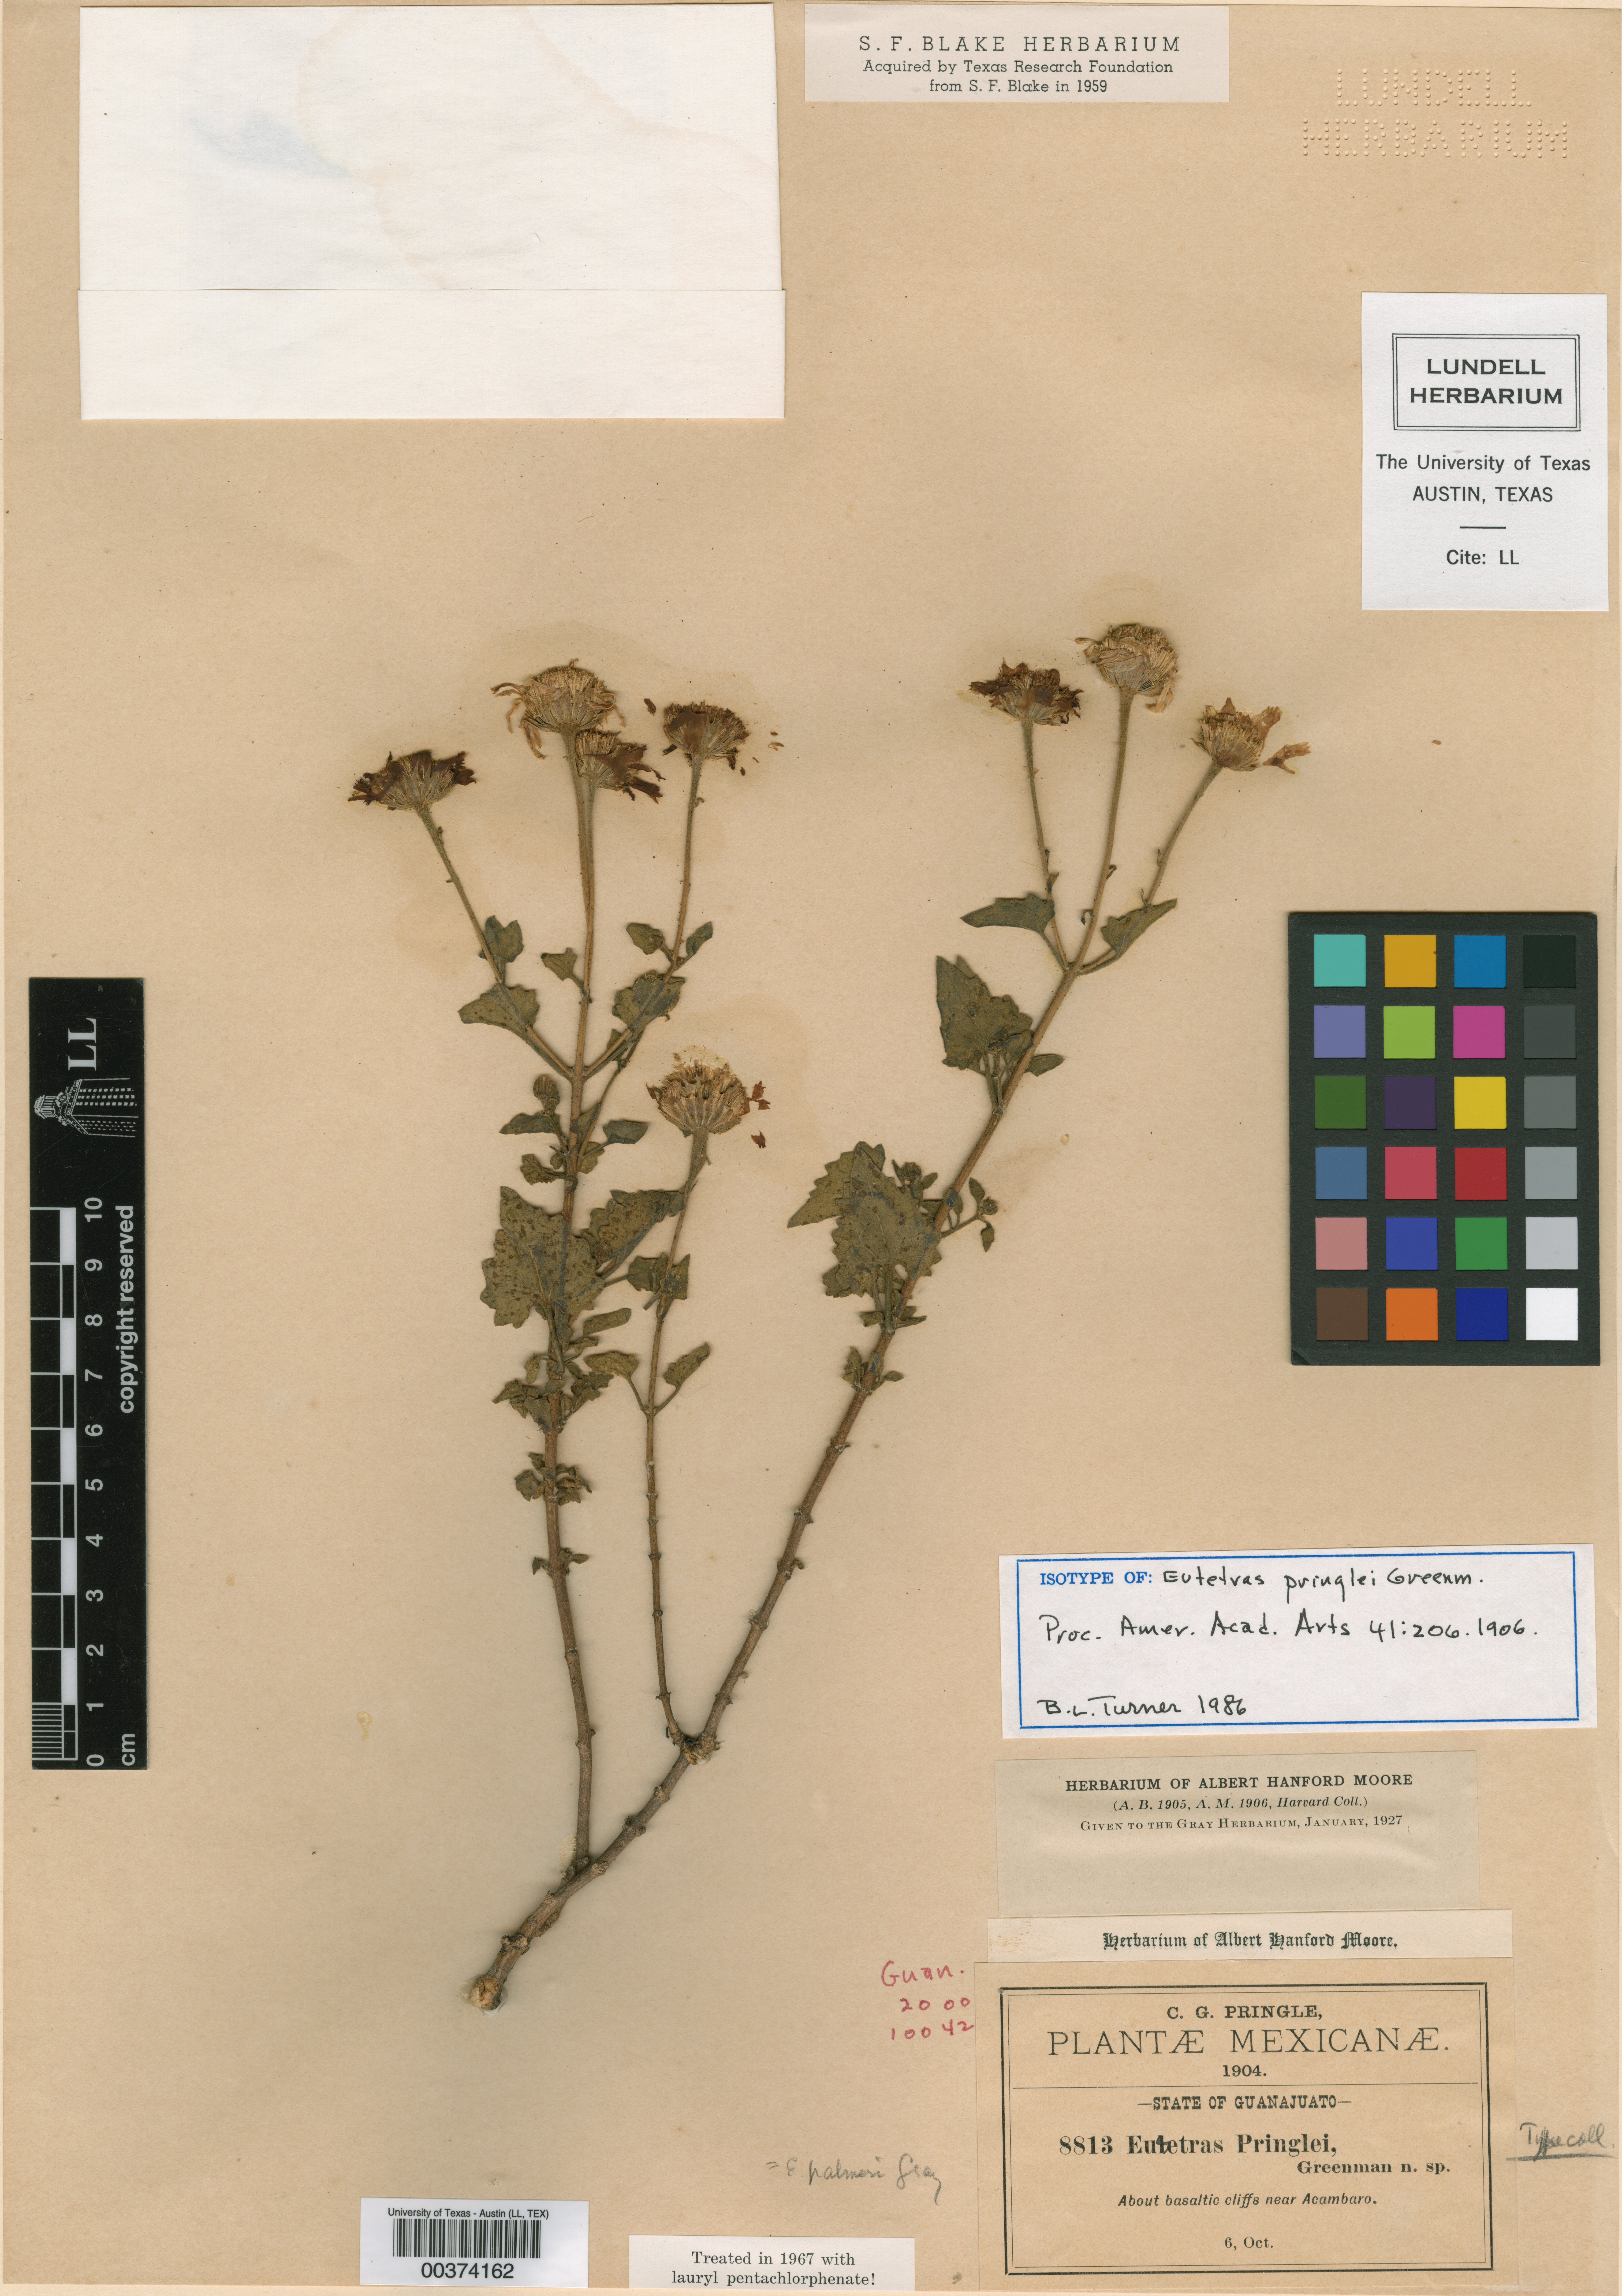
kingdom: Plantae
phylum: Tracheophyta
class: Magnoliopsida
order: Asterales
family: Asteraceae
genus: Eutetras
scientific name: Eutetras pringlei
